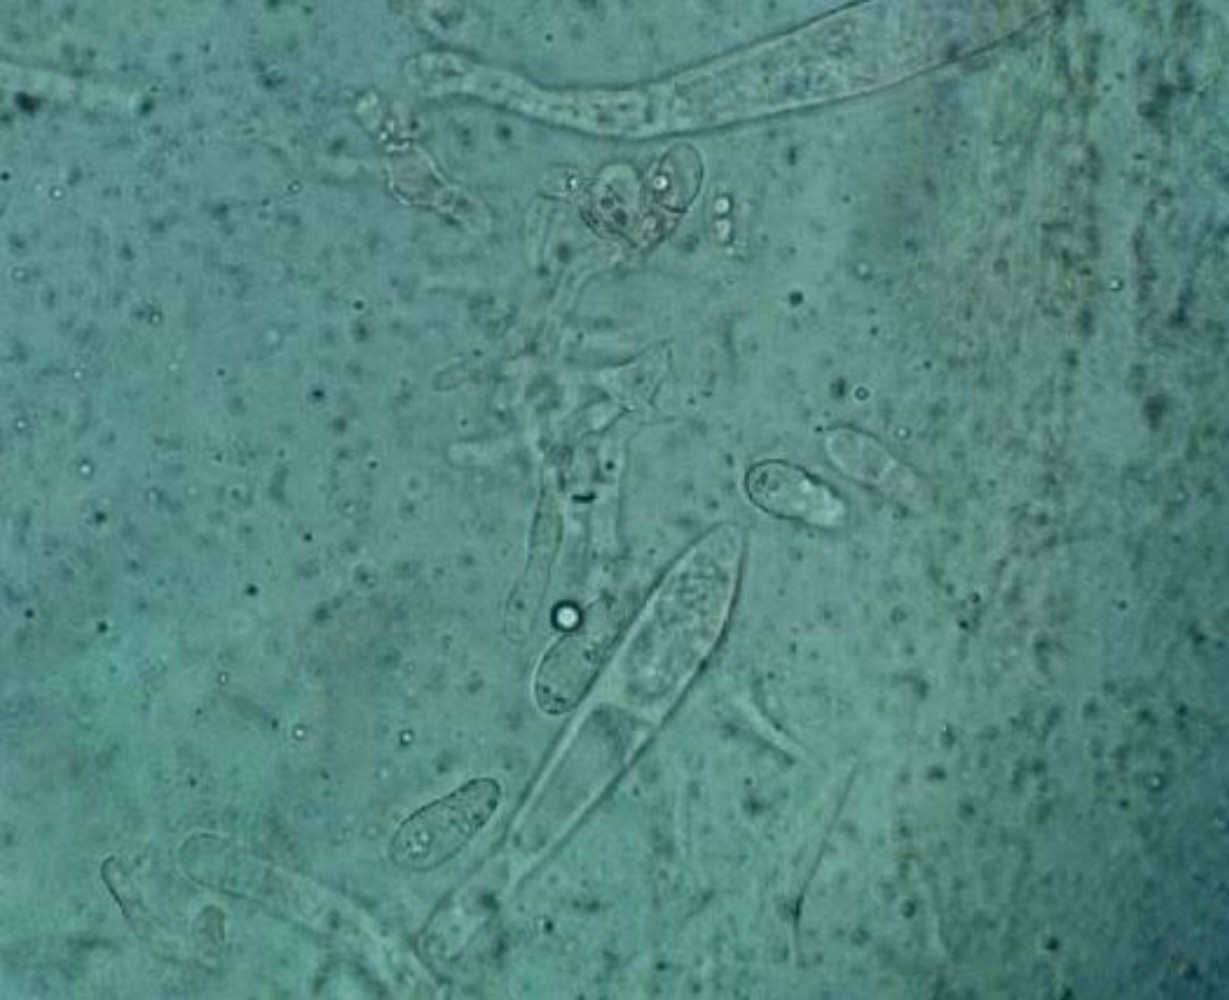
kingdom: Fungi
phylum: Ascomycota
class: Leotiomycetes
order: Helotiales
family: Drepanopezizaceae
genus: Leptotrochila
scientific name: Leptotrochila ranunculi
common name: ranunkel-bladskive
